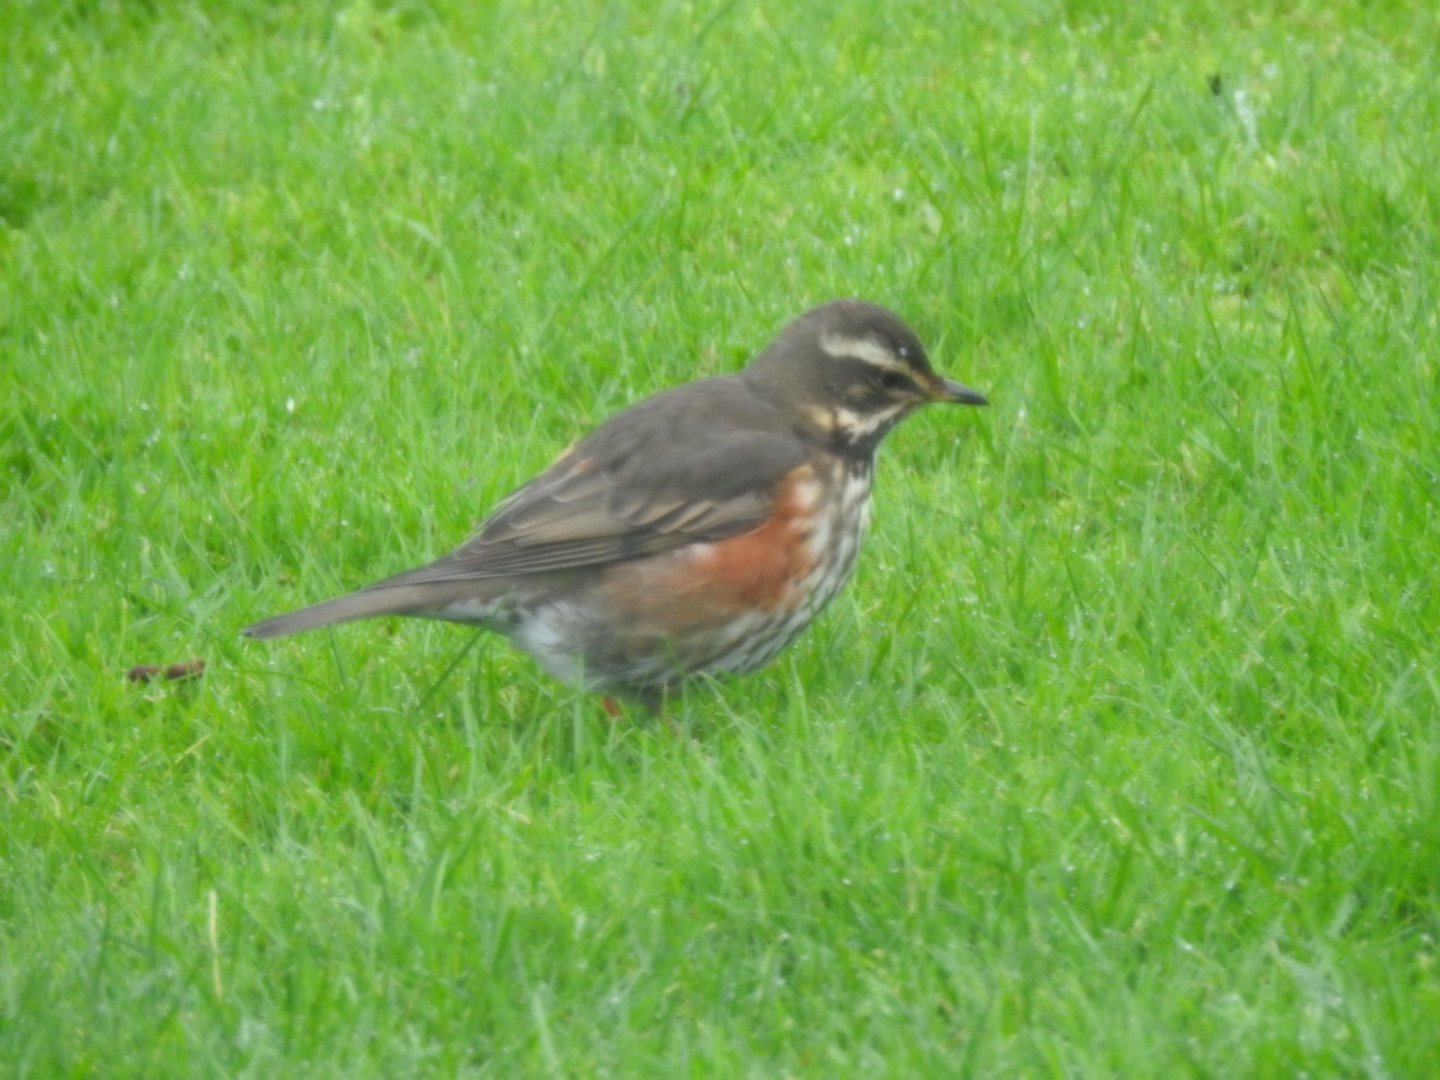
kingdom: Animalia
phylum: Chordata
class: Aves
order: Passeriformes
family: Turdidae
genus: Turdus
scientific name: Turdus iliacus
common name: Vindrossel
